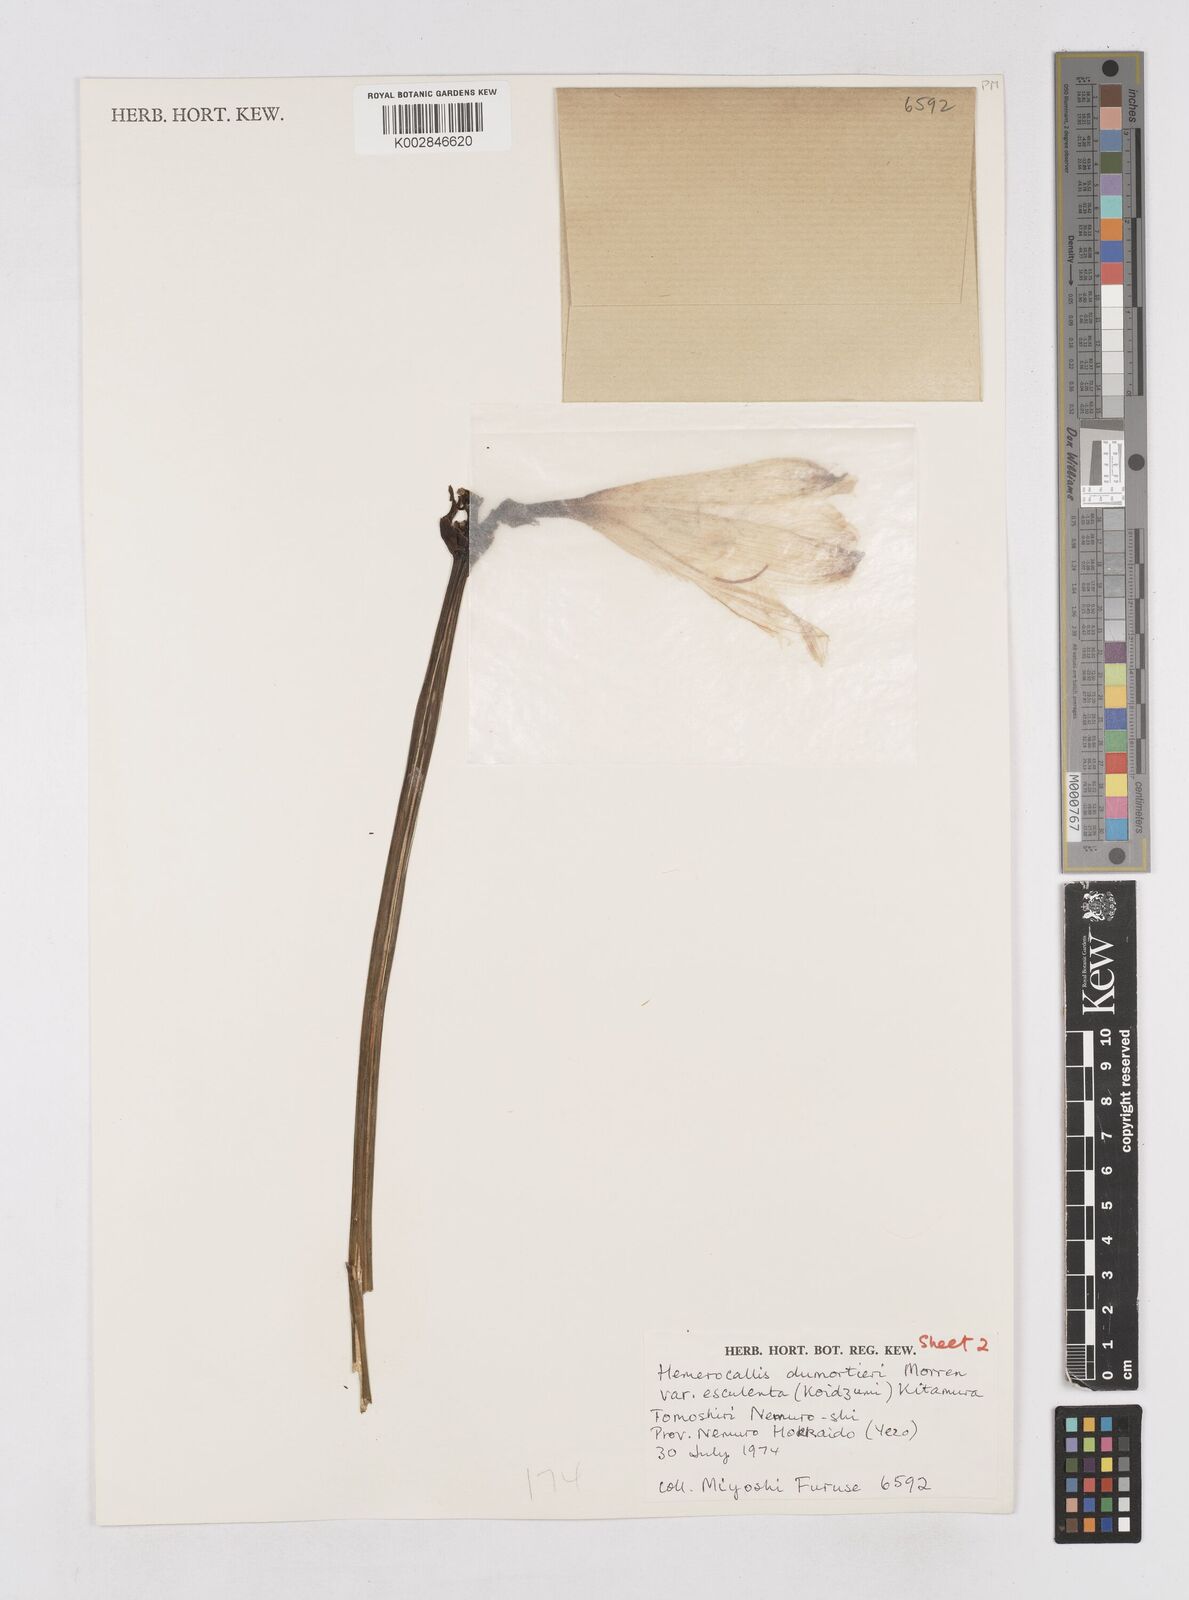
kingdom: Plantae
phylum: Tracheophyta
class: Liliopsida
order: Asparagales
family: Asphodelaceae
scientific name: Asphodelaceae
